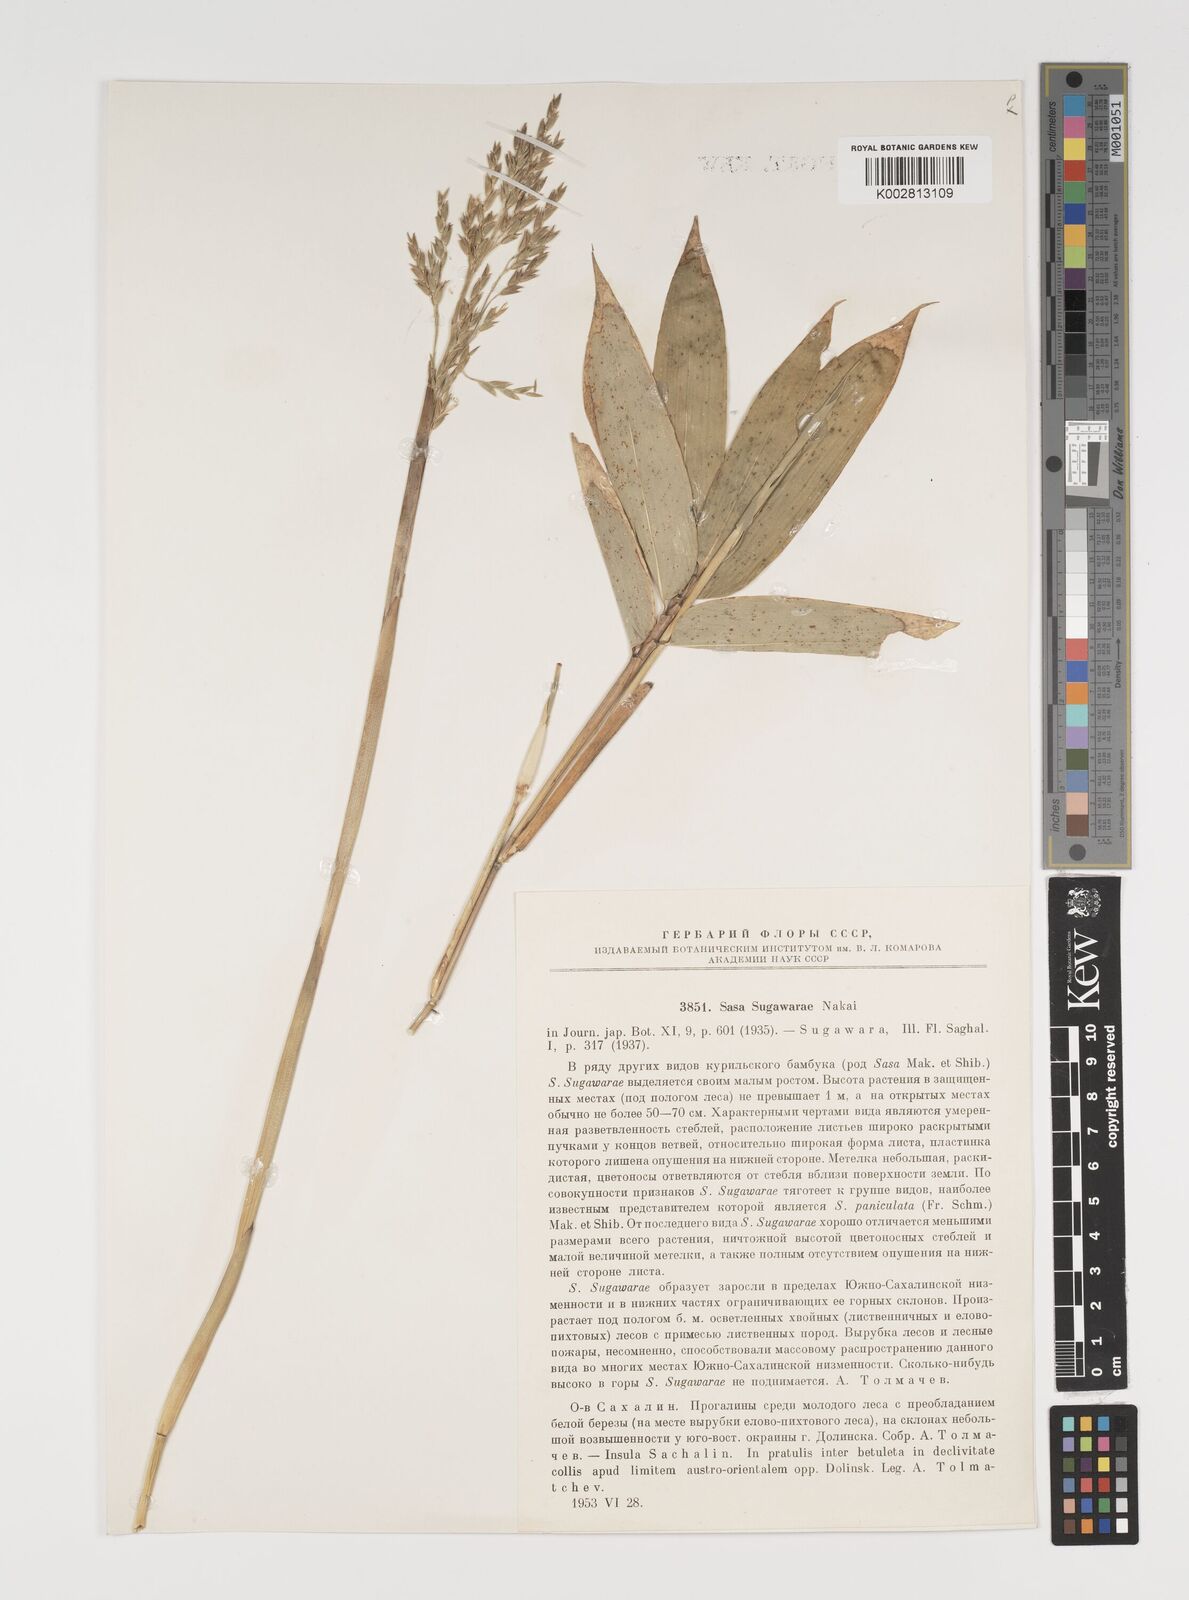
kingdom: Plantae
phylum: Tracheophyta
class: Liliopsida
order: Poales
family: Poaceae
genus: Sasa
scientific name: Sasa megalophylla
